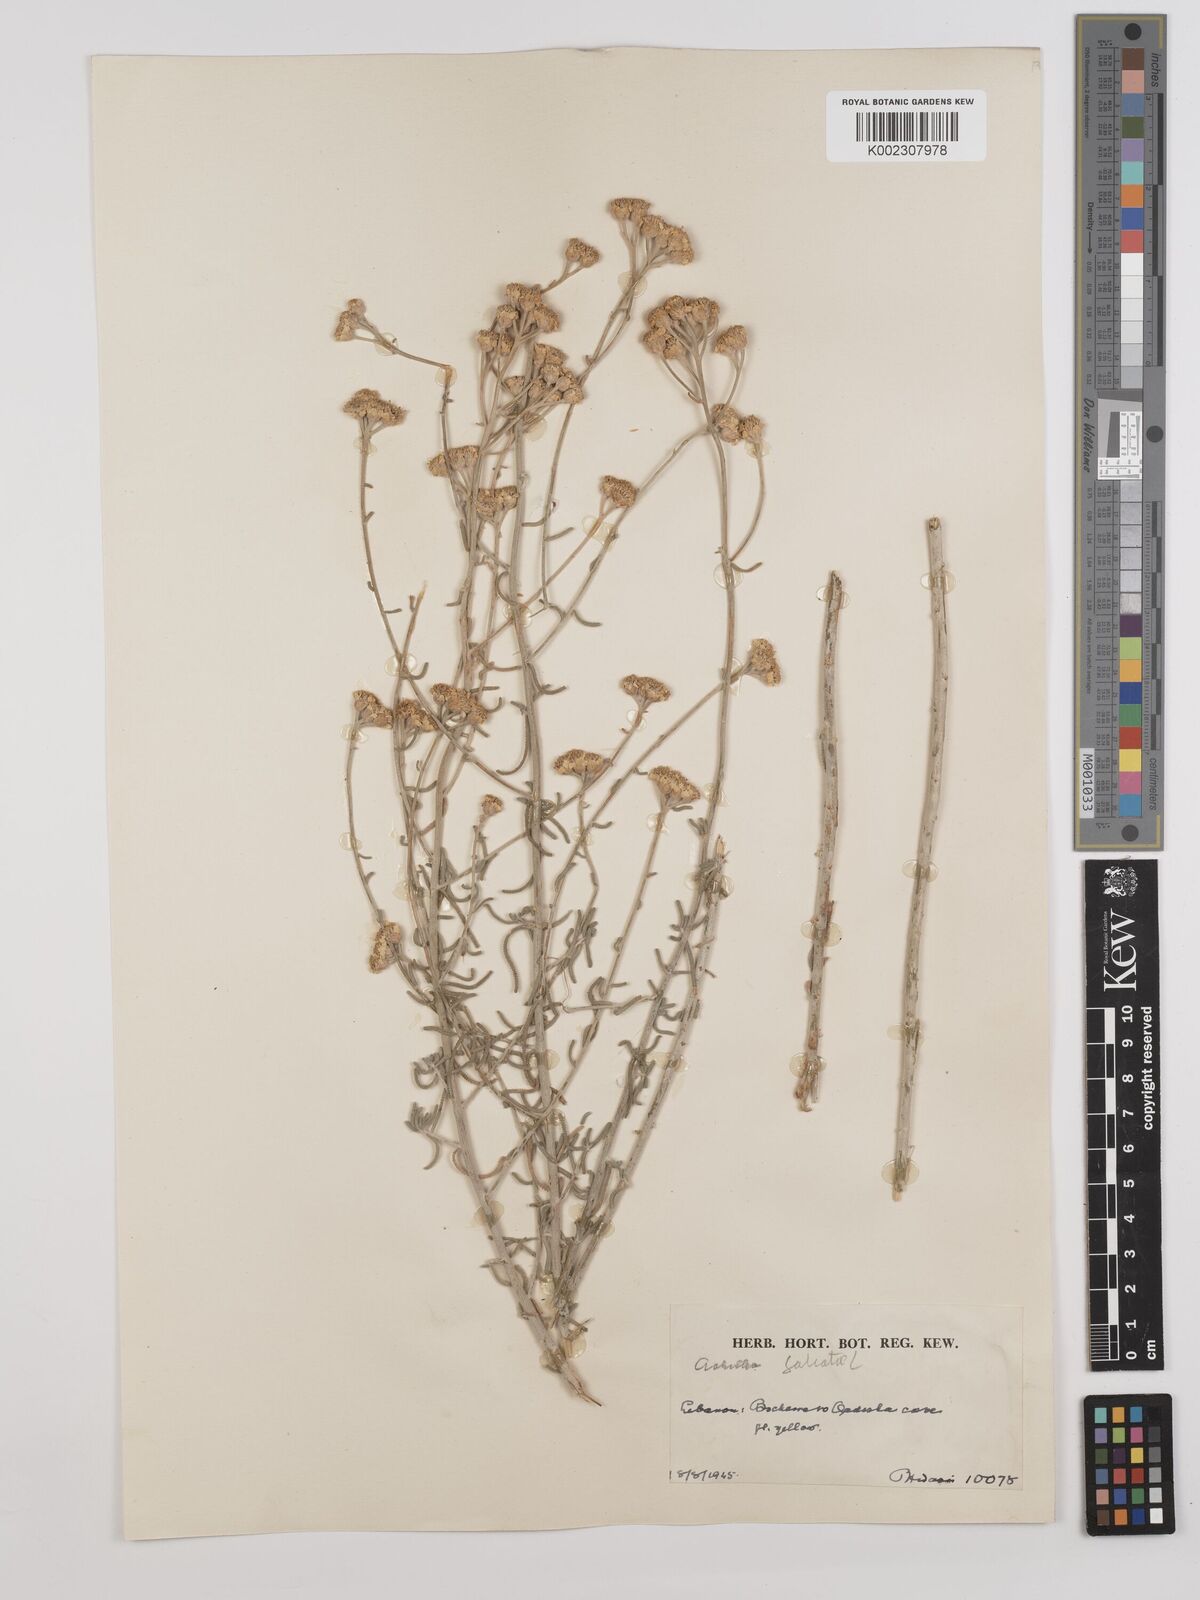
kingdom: Plantae
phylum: Tracheophyta
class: Magnoliopsida
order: Asterales
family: Asteraceae
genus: Achillea
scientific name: Achillea falcata
